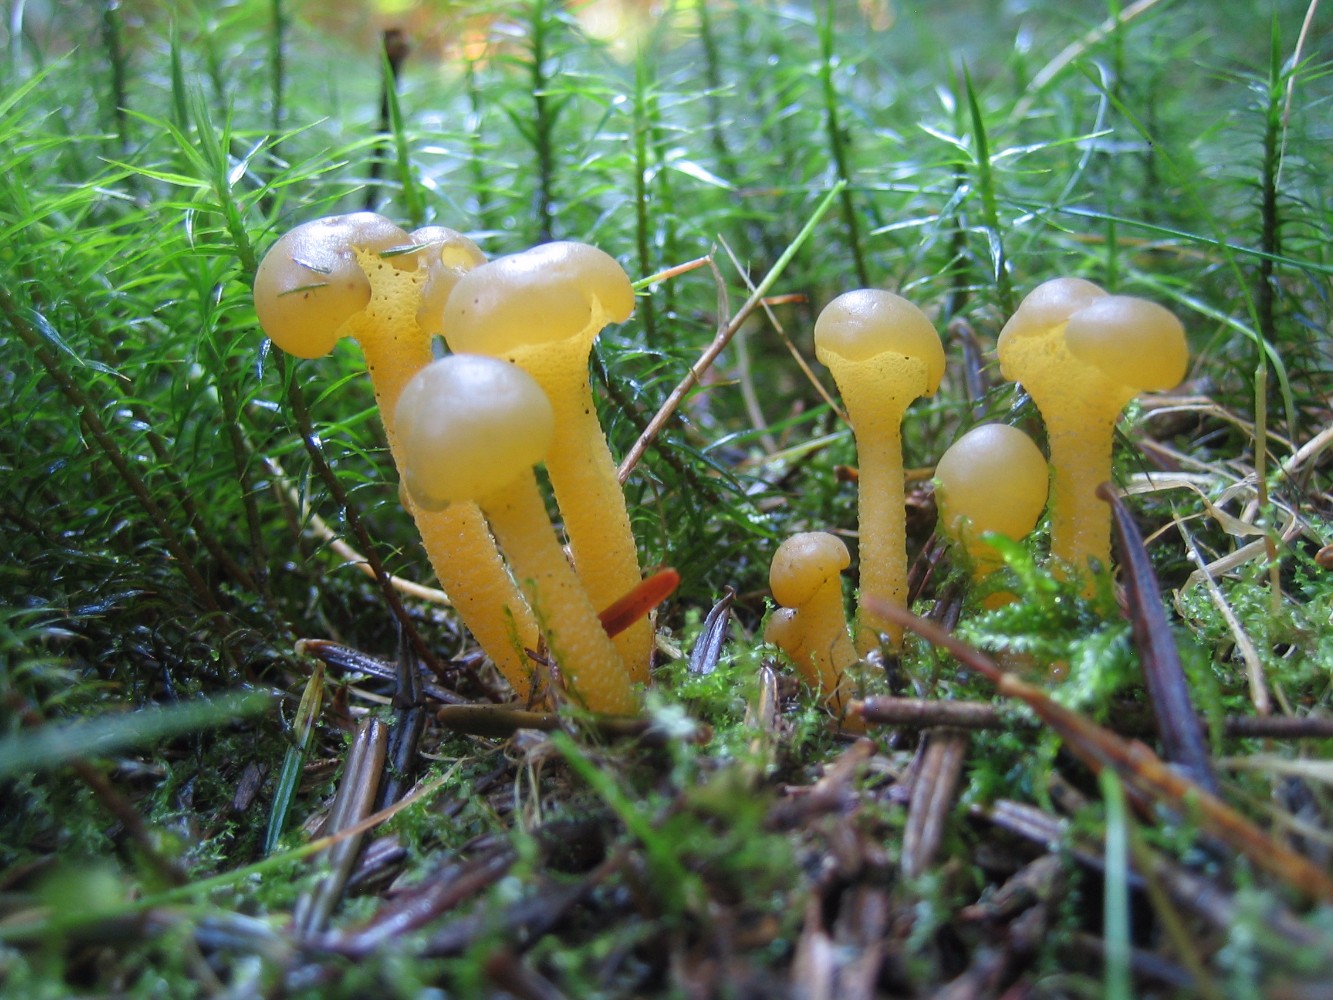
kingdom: Fungi
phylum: Ascomycota
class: Leotiomycetes
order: Leotiales
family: Leotiaceae
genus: Leotia
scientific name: Leotia lubrica
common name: ravsvamp
